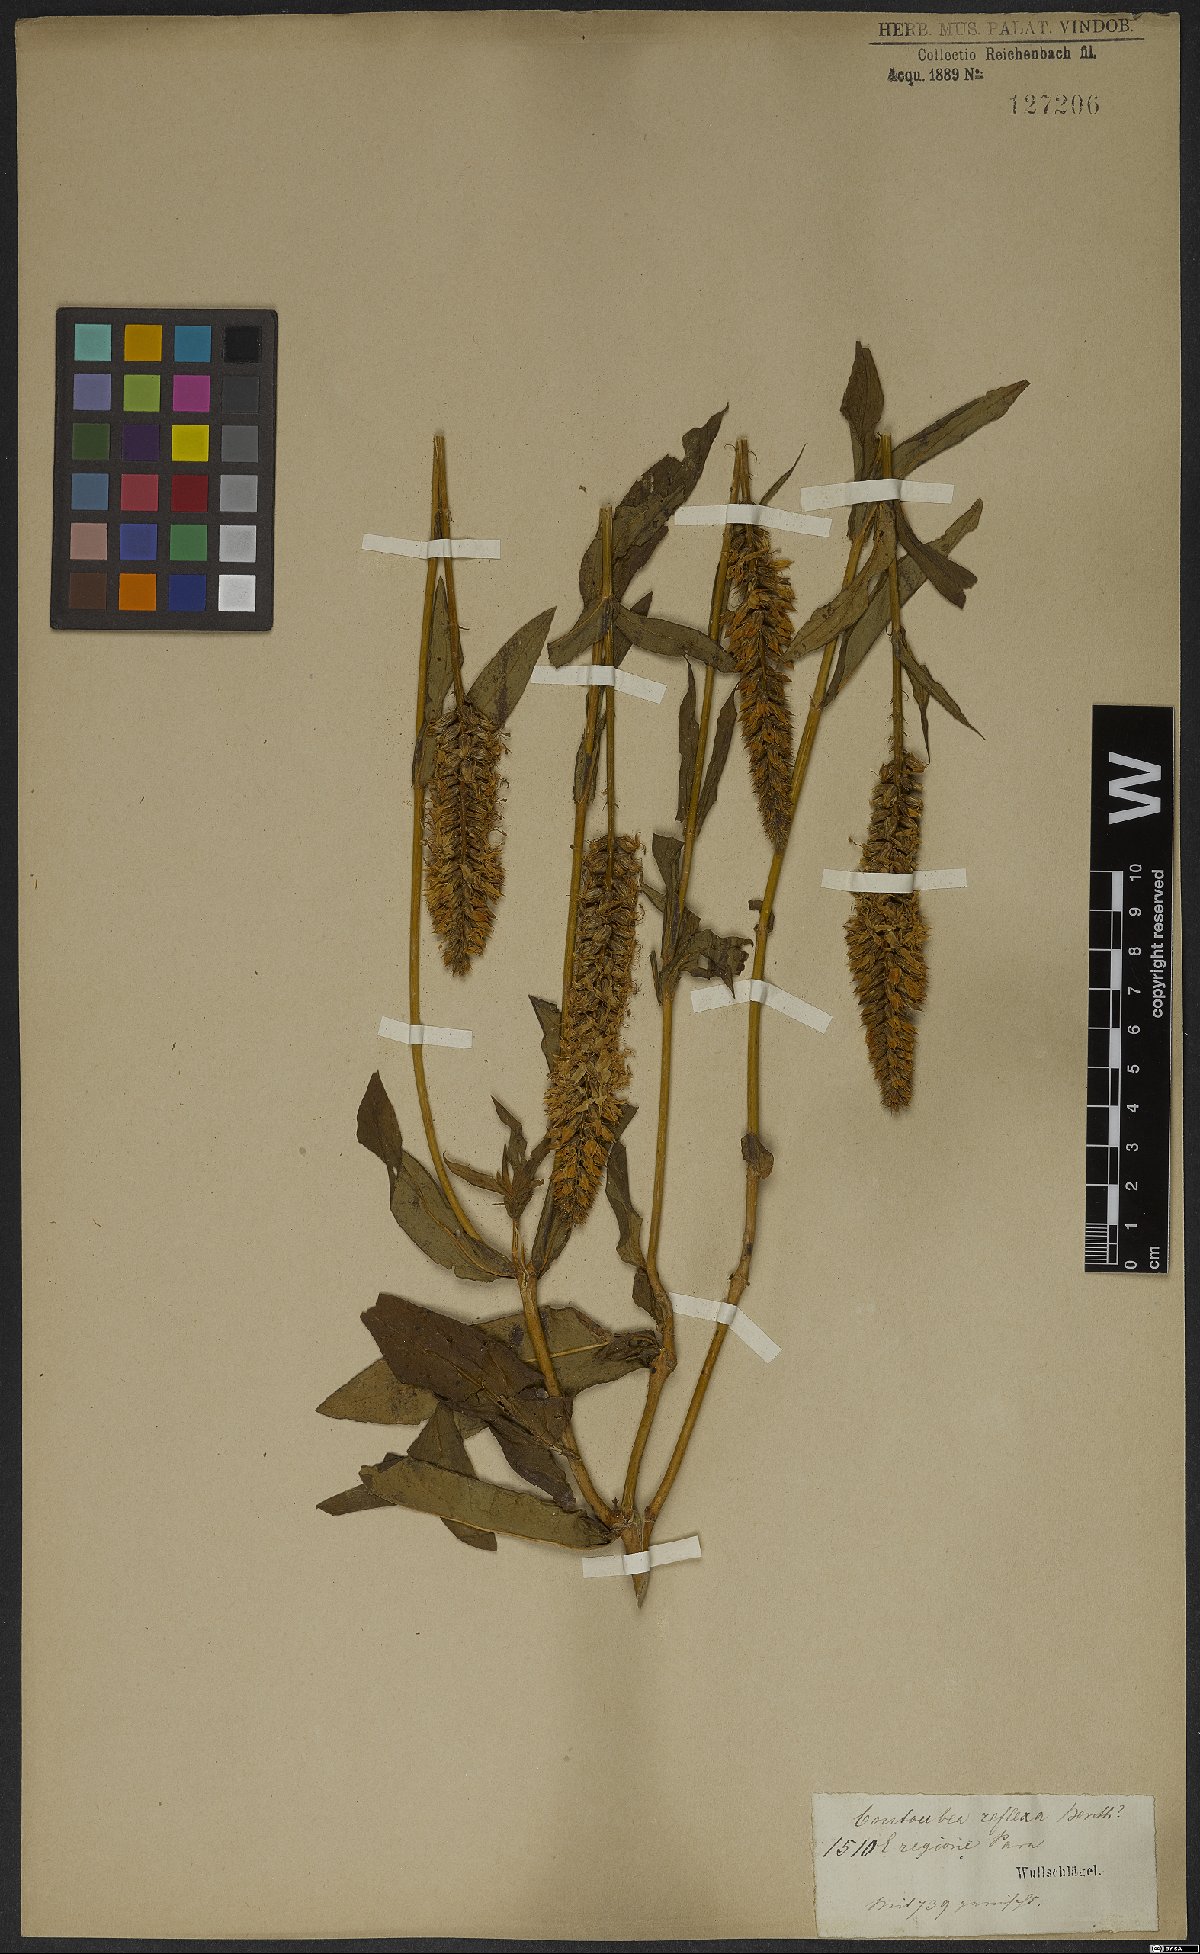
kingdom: Plantae
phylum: Tracheophyta
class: Magnoliopsida
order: Gentianales
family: Gentianaceae
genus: Coutoubea
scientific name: Coutoubea reflexa
